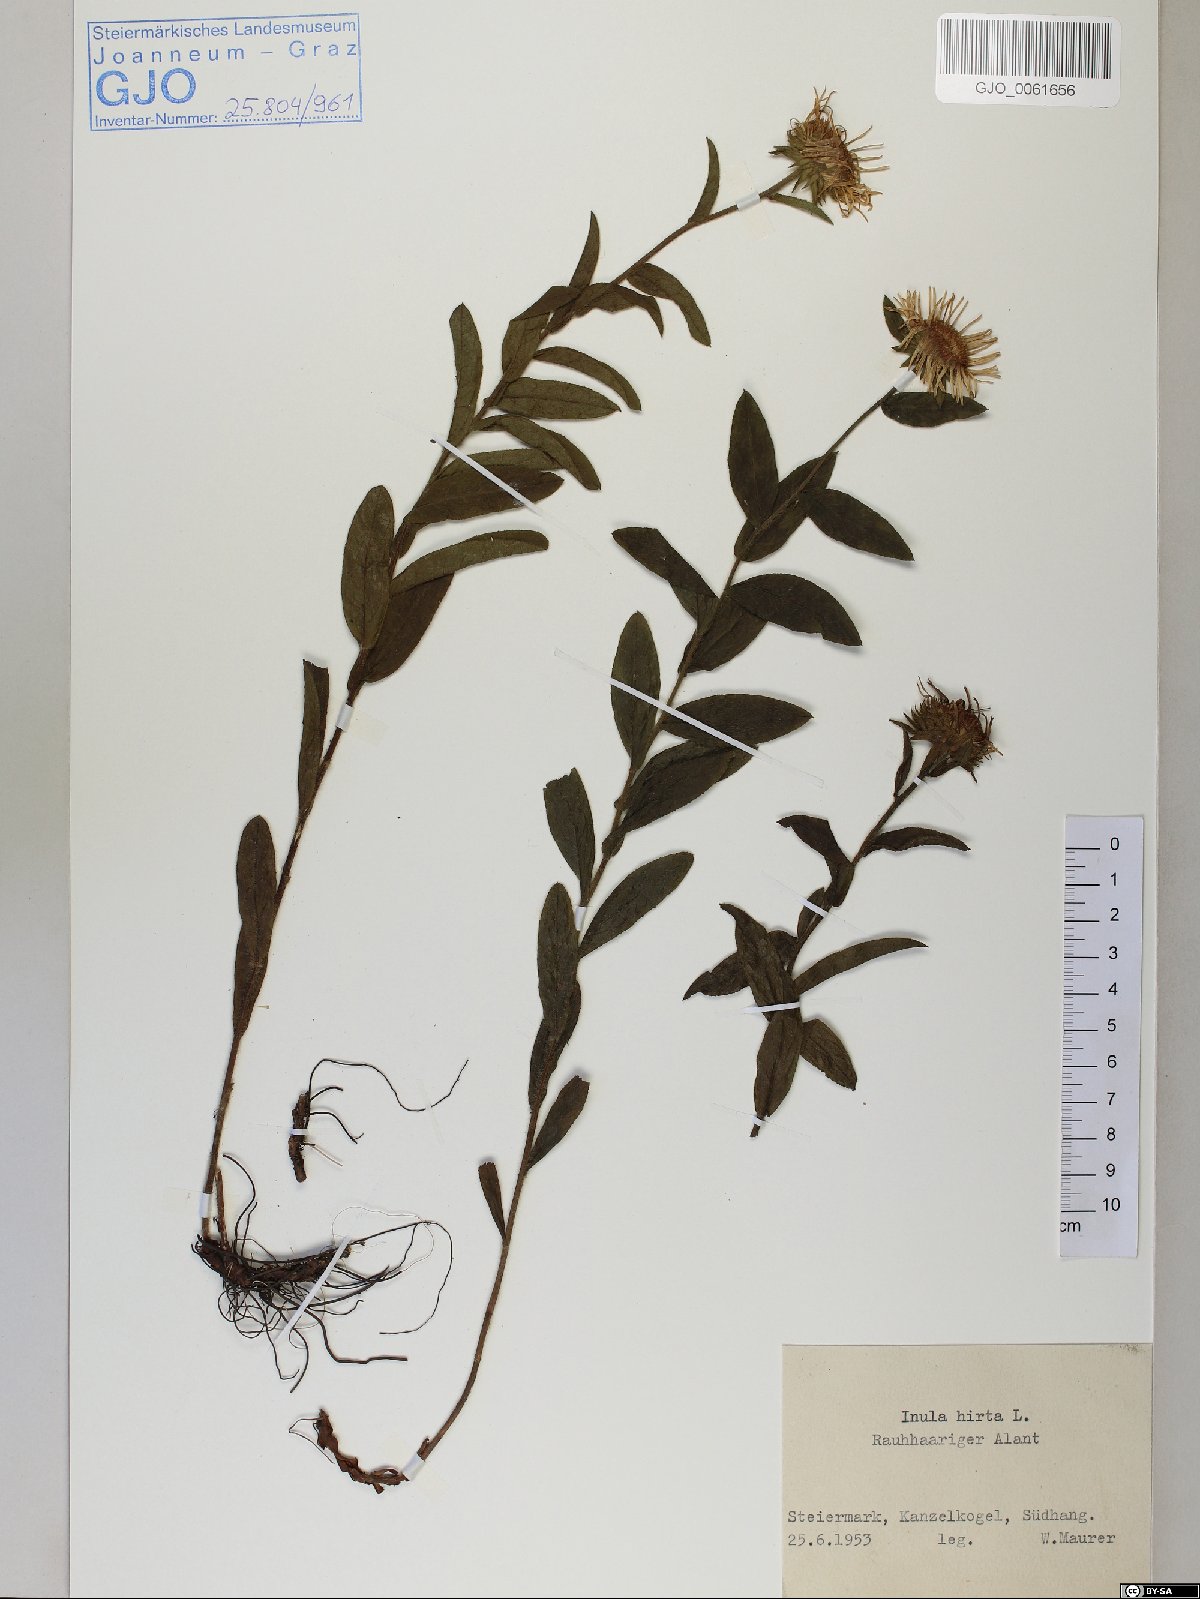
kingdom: Plantae
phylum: Tracheophyta
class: Magnoliopsida
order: Asterales
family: Asteraceae
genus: Pentanema
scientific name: Pentanema hirtum
